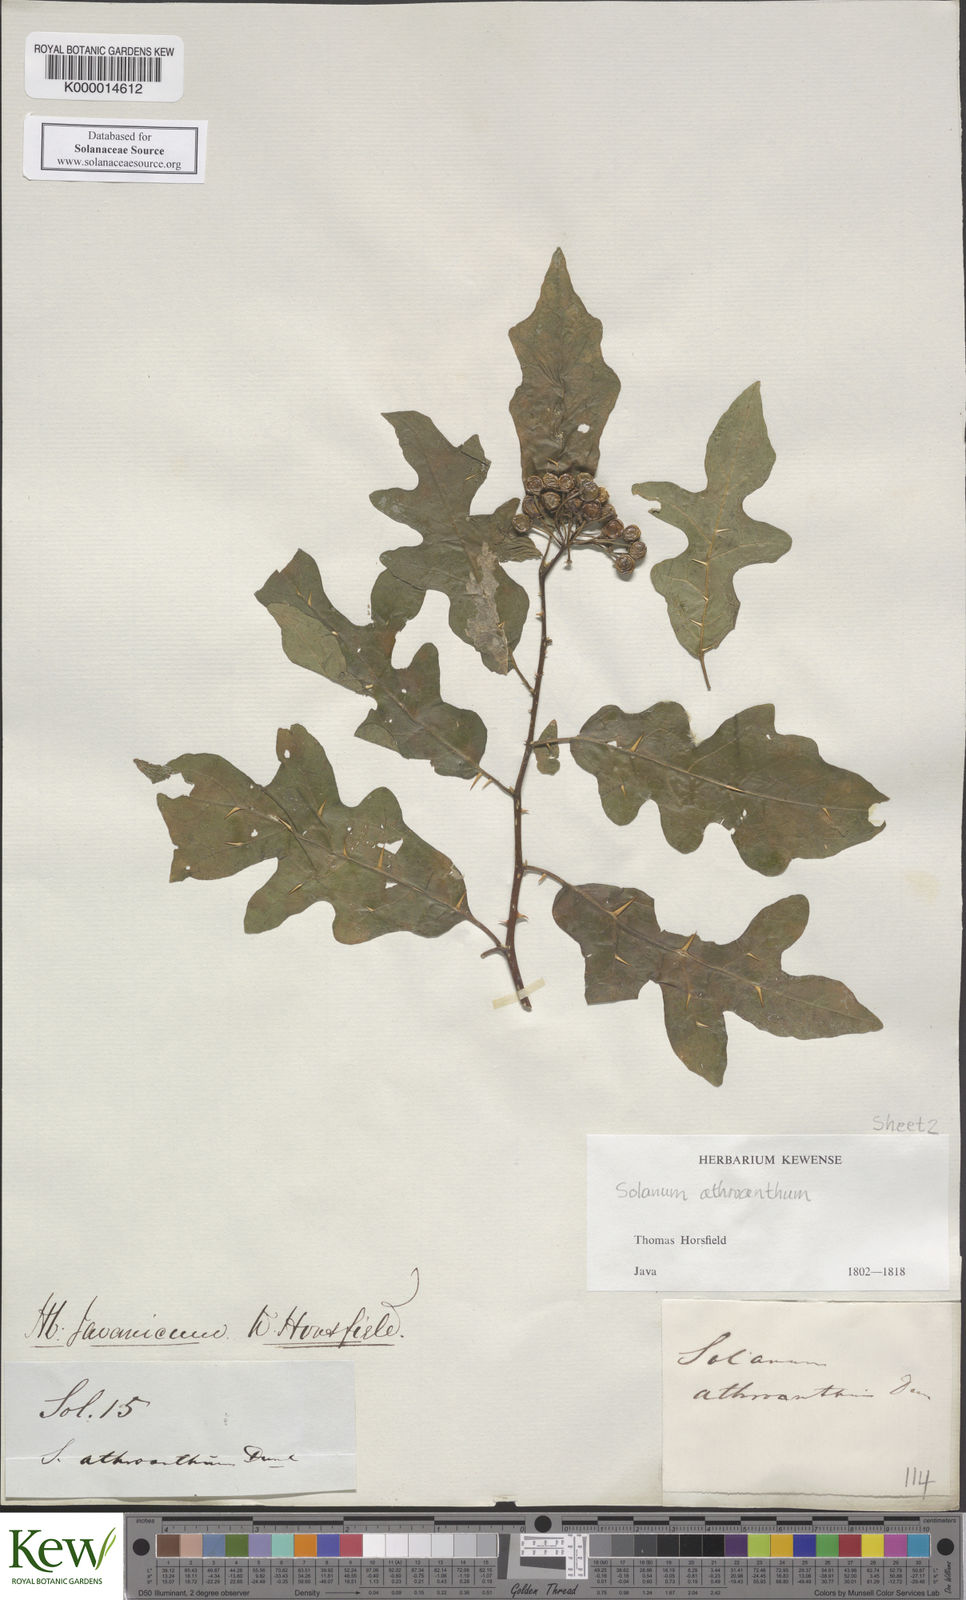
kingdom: Plantae
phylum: Tracheophyta
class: Magnoliopsida
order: Solanales
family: Solanaceae
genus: Solanum
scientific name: Solanum graciliflorum
